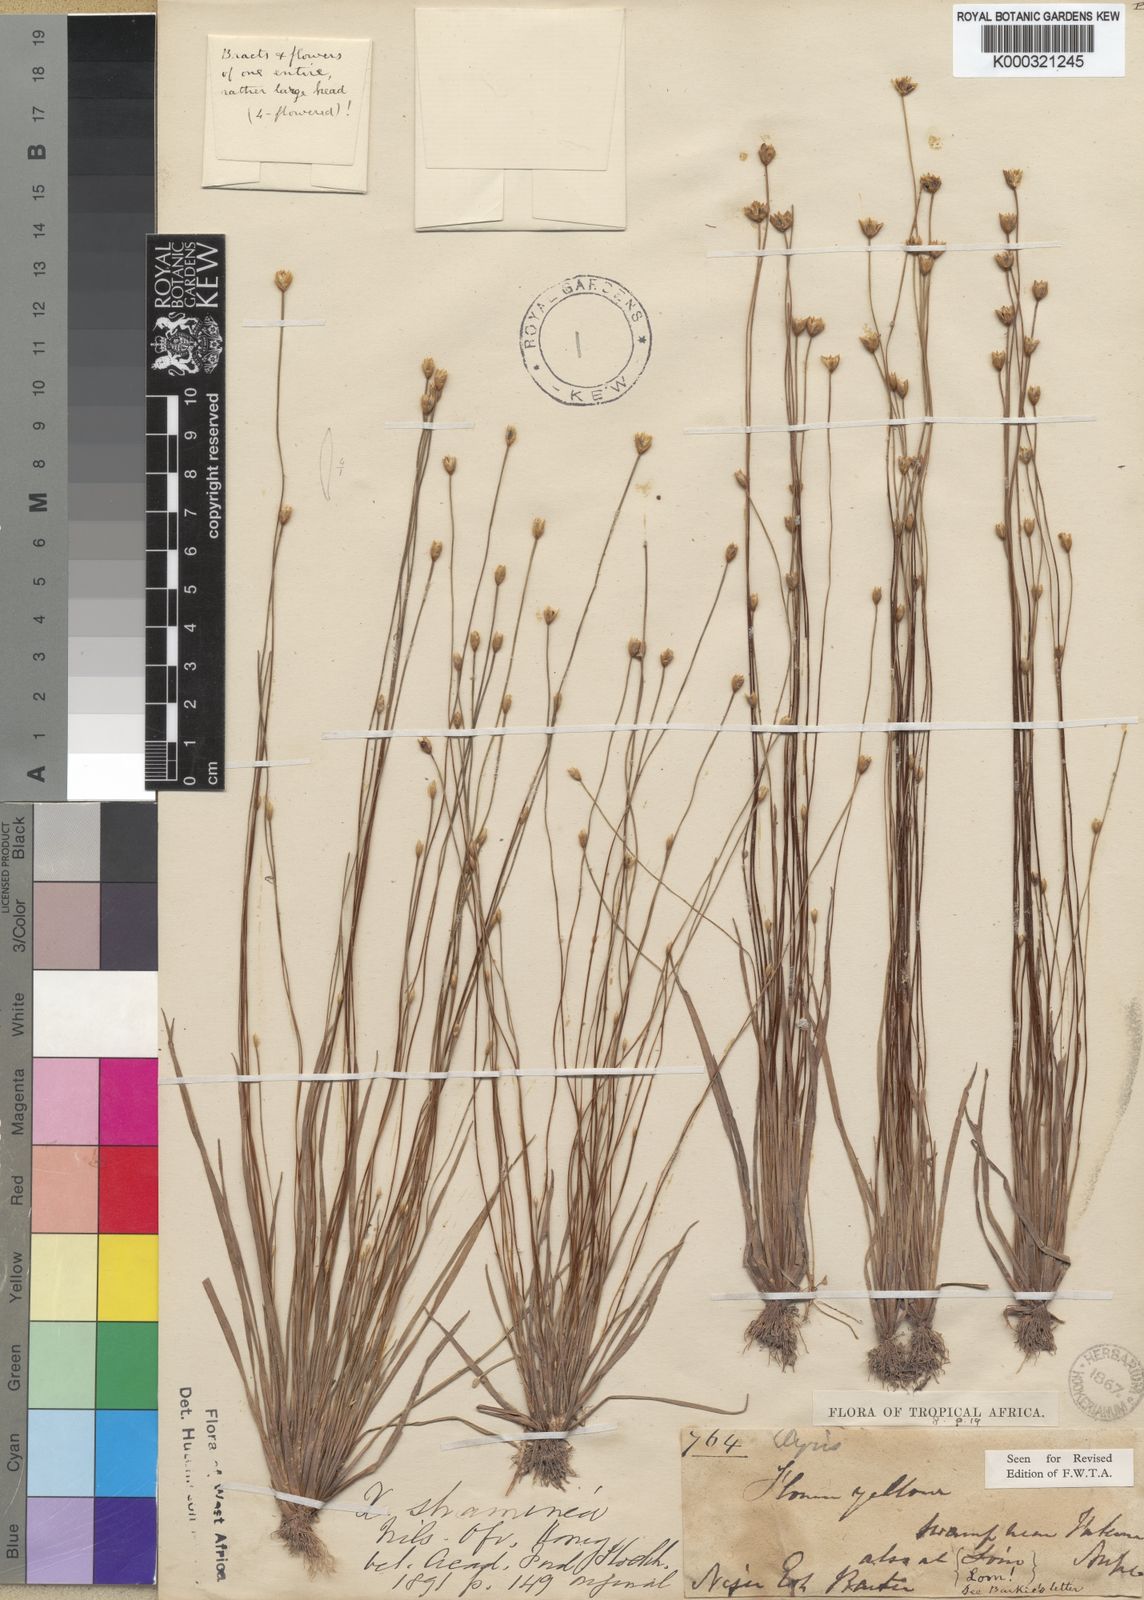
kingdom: Plantae
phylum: Tracheophyta
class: Liliopsida
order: Poales
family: Xyridaceae
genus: Xyris
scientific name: Xyris straminea
